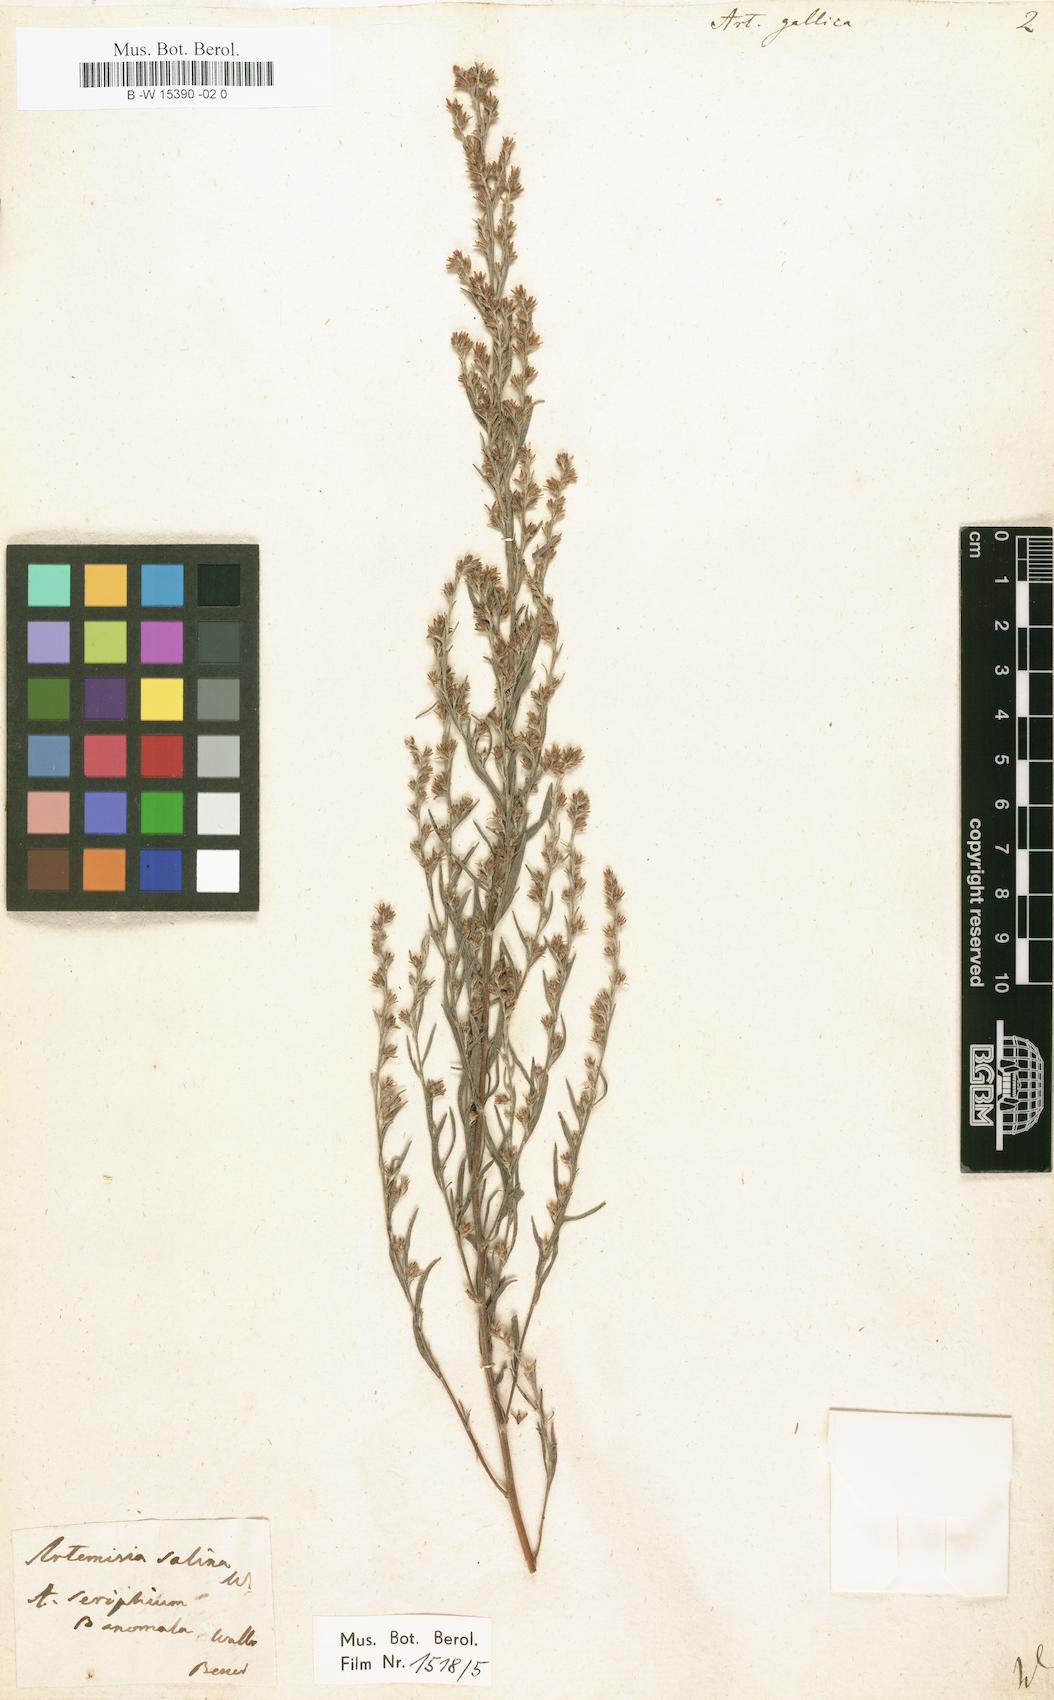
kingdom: Plantae
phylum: Tracheophyta
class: Magnoliopsida
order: Asterales
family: Asteraceae
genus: Artemisia
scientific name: Artemisia maritima
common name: Wormseed
